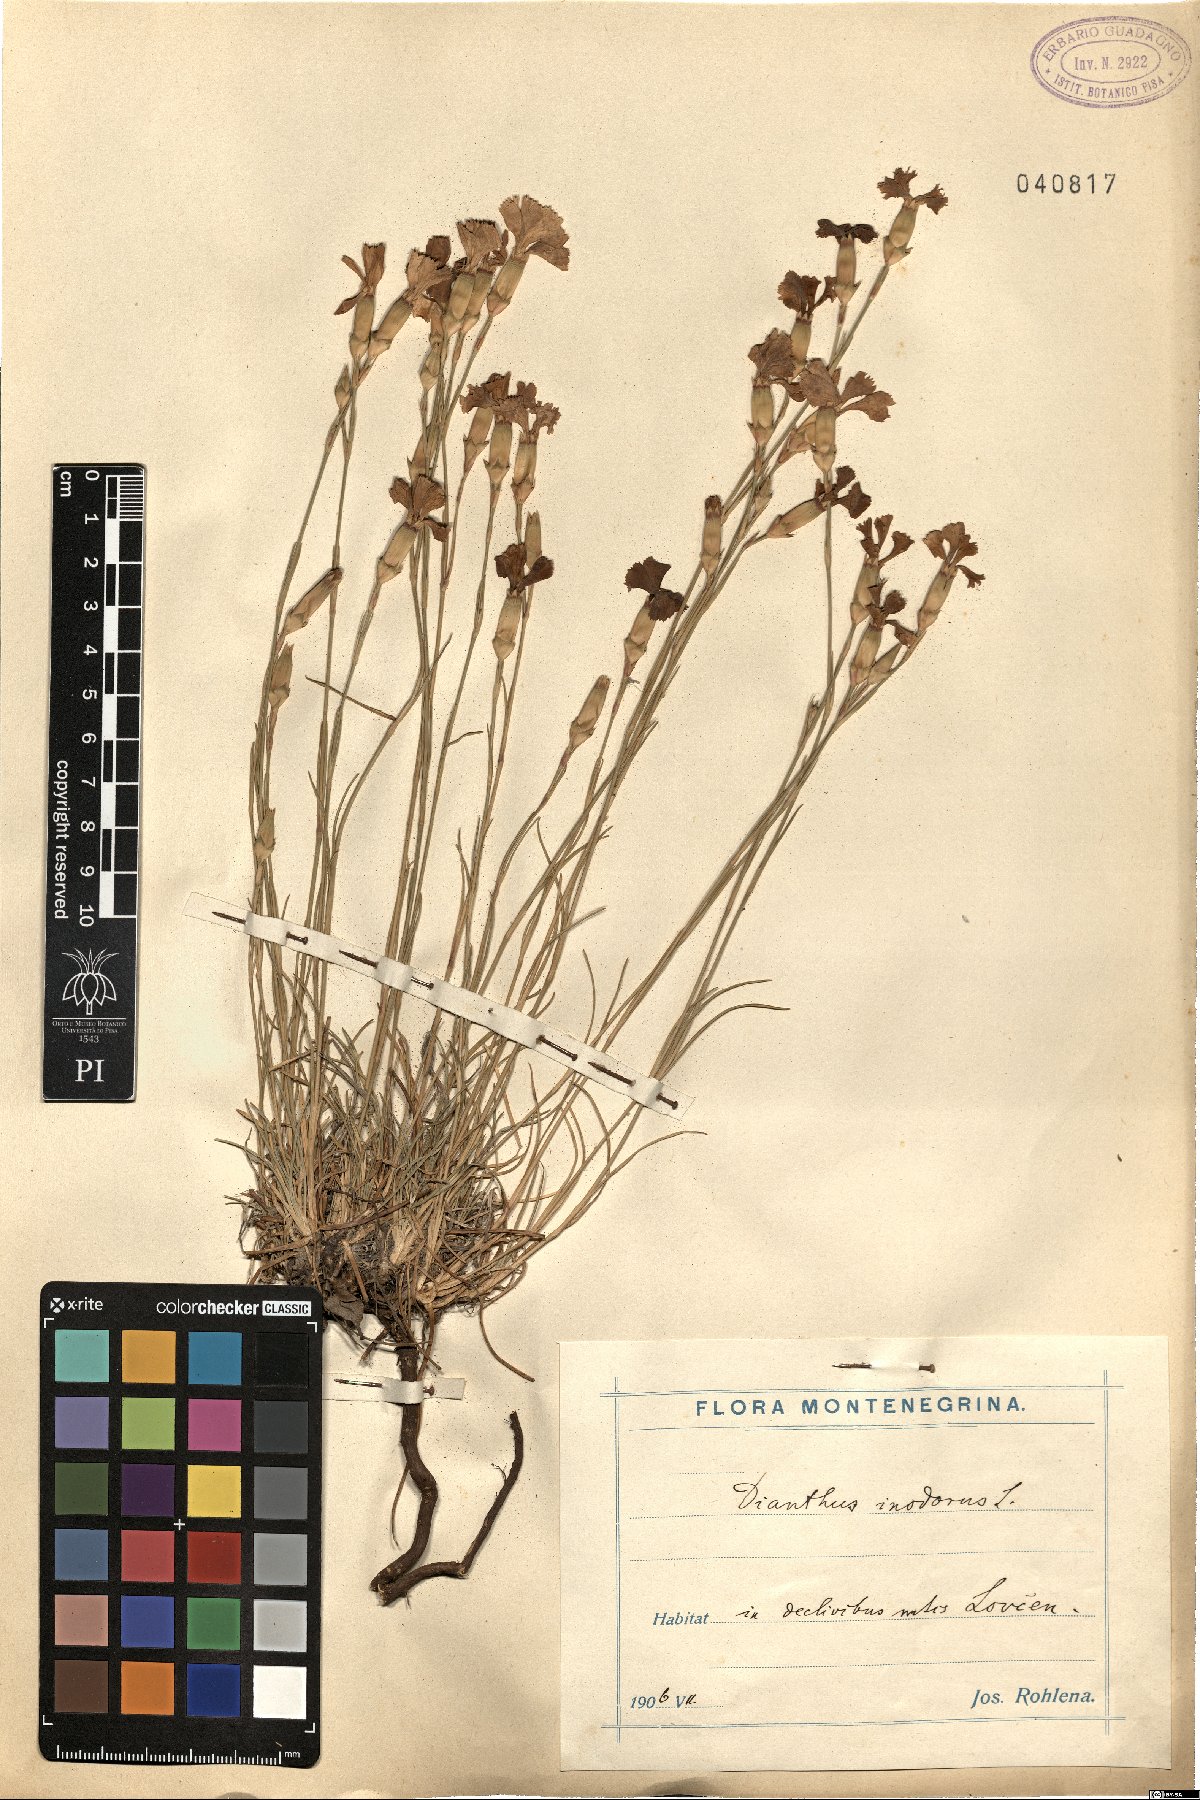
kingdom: Plantae
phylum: Tracheophyta
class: Magnoliopsida
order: Caryophyllales
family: Caryophyllaceae
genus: Dianthus
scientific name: Dianthus sylvestris
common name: Wood pink
